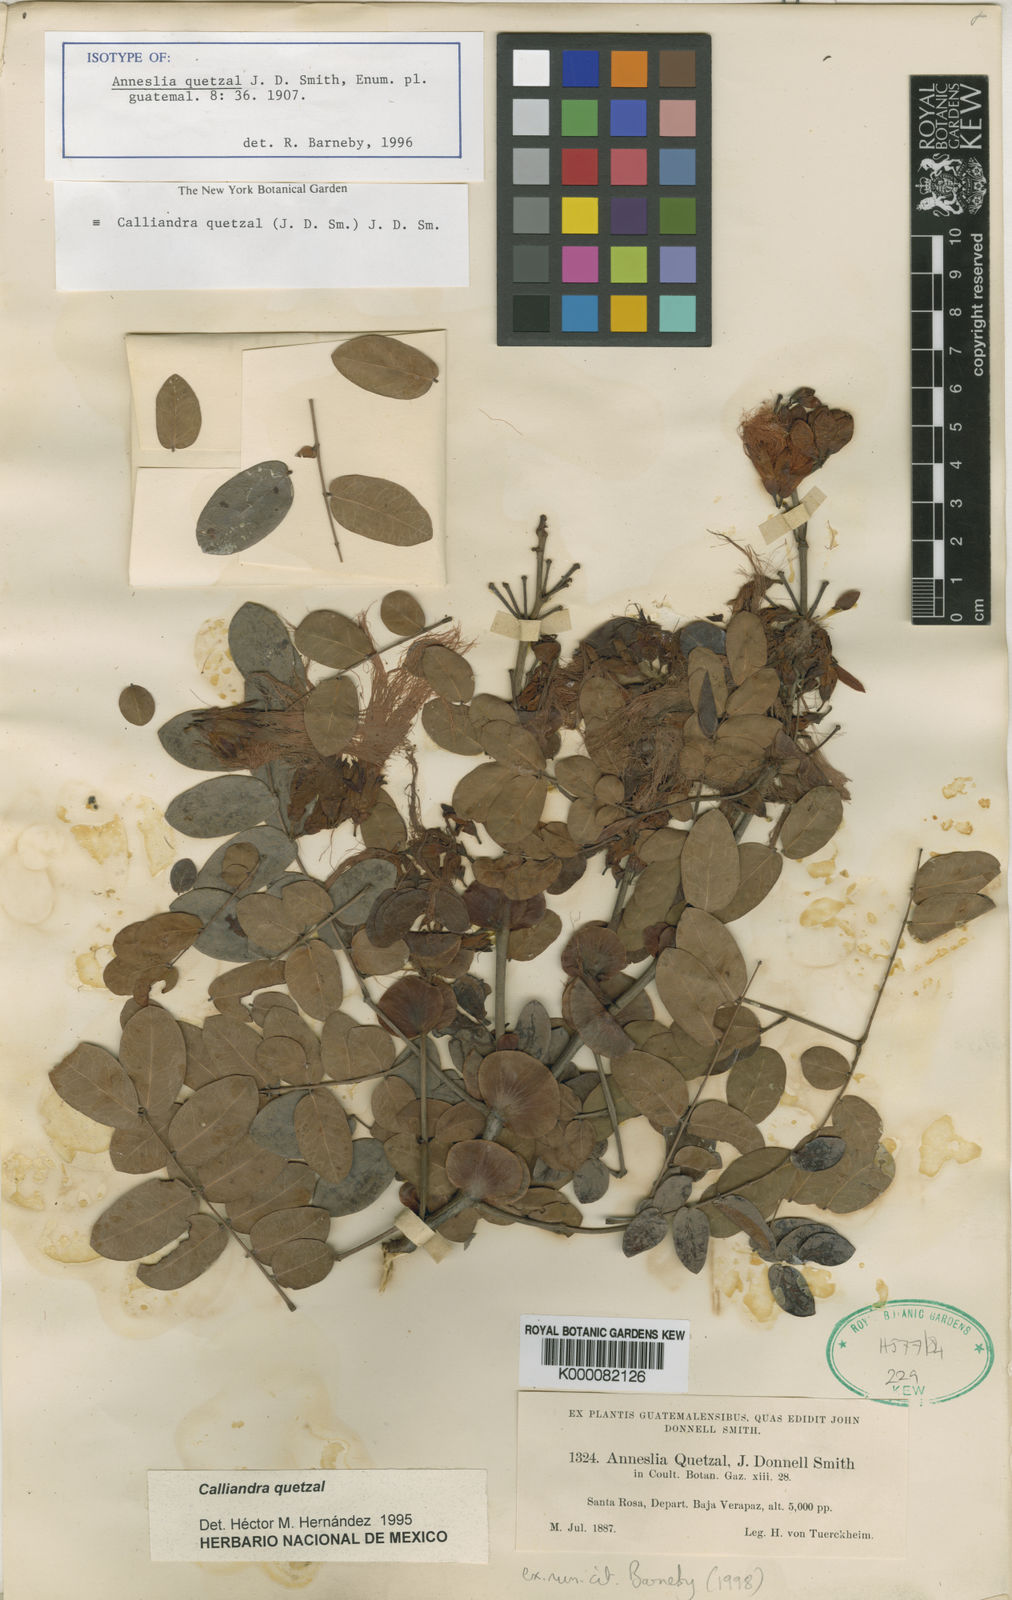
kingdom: Plantae
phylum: Tracheophyta
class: Magnoliopsida
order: Fabales
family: Fabaceae
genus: Calliandra
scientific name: Calliandra quetzal
